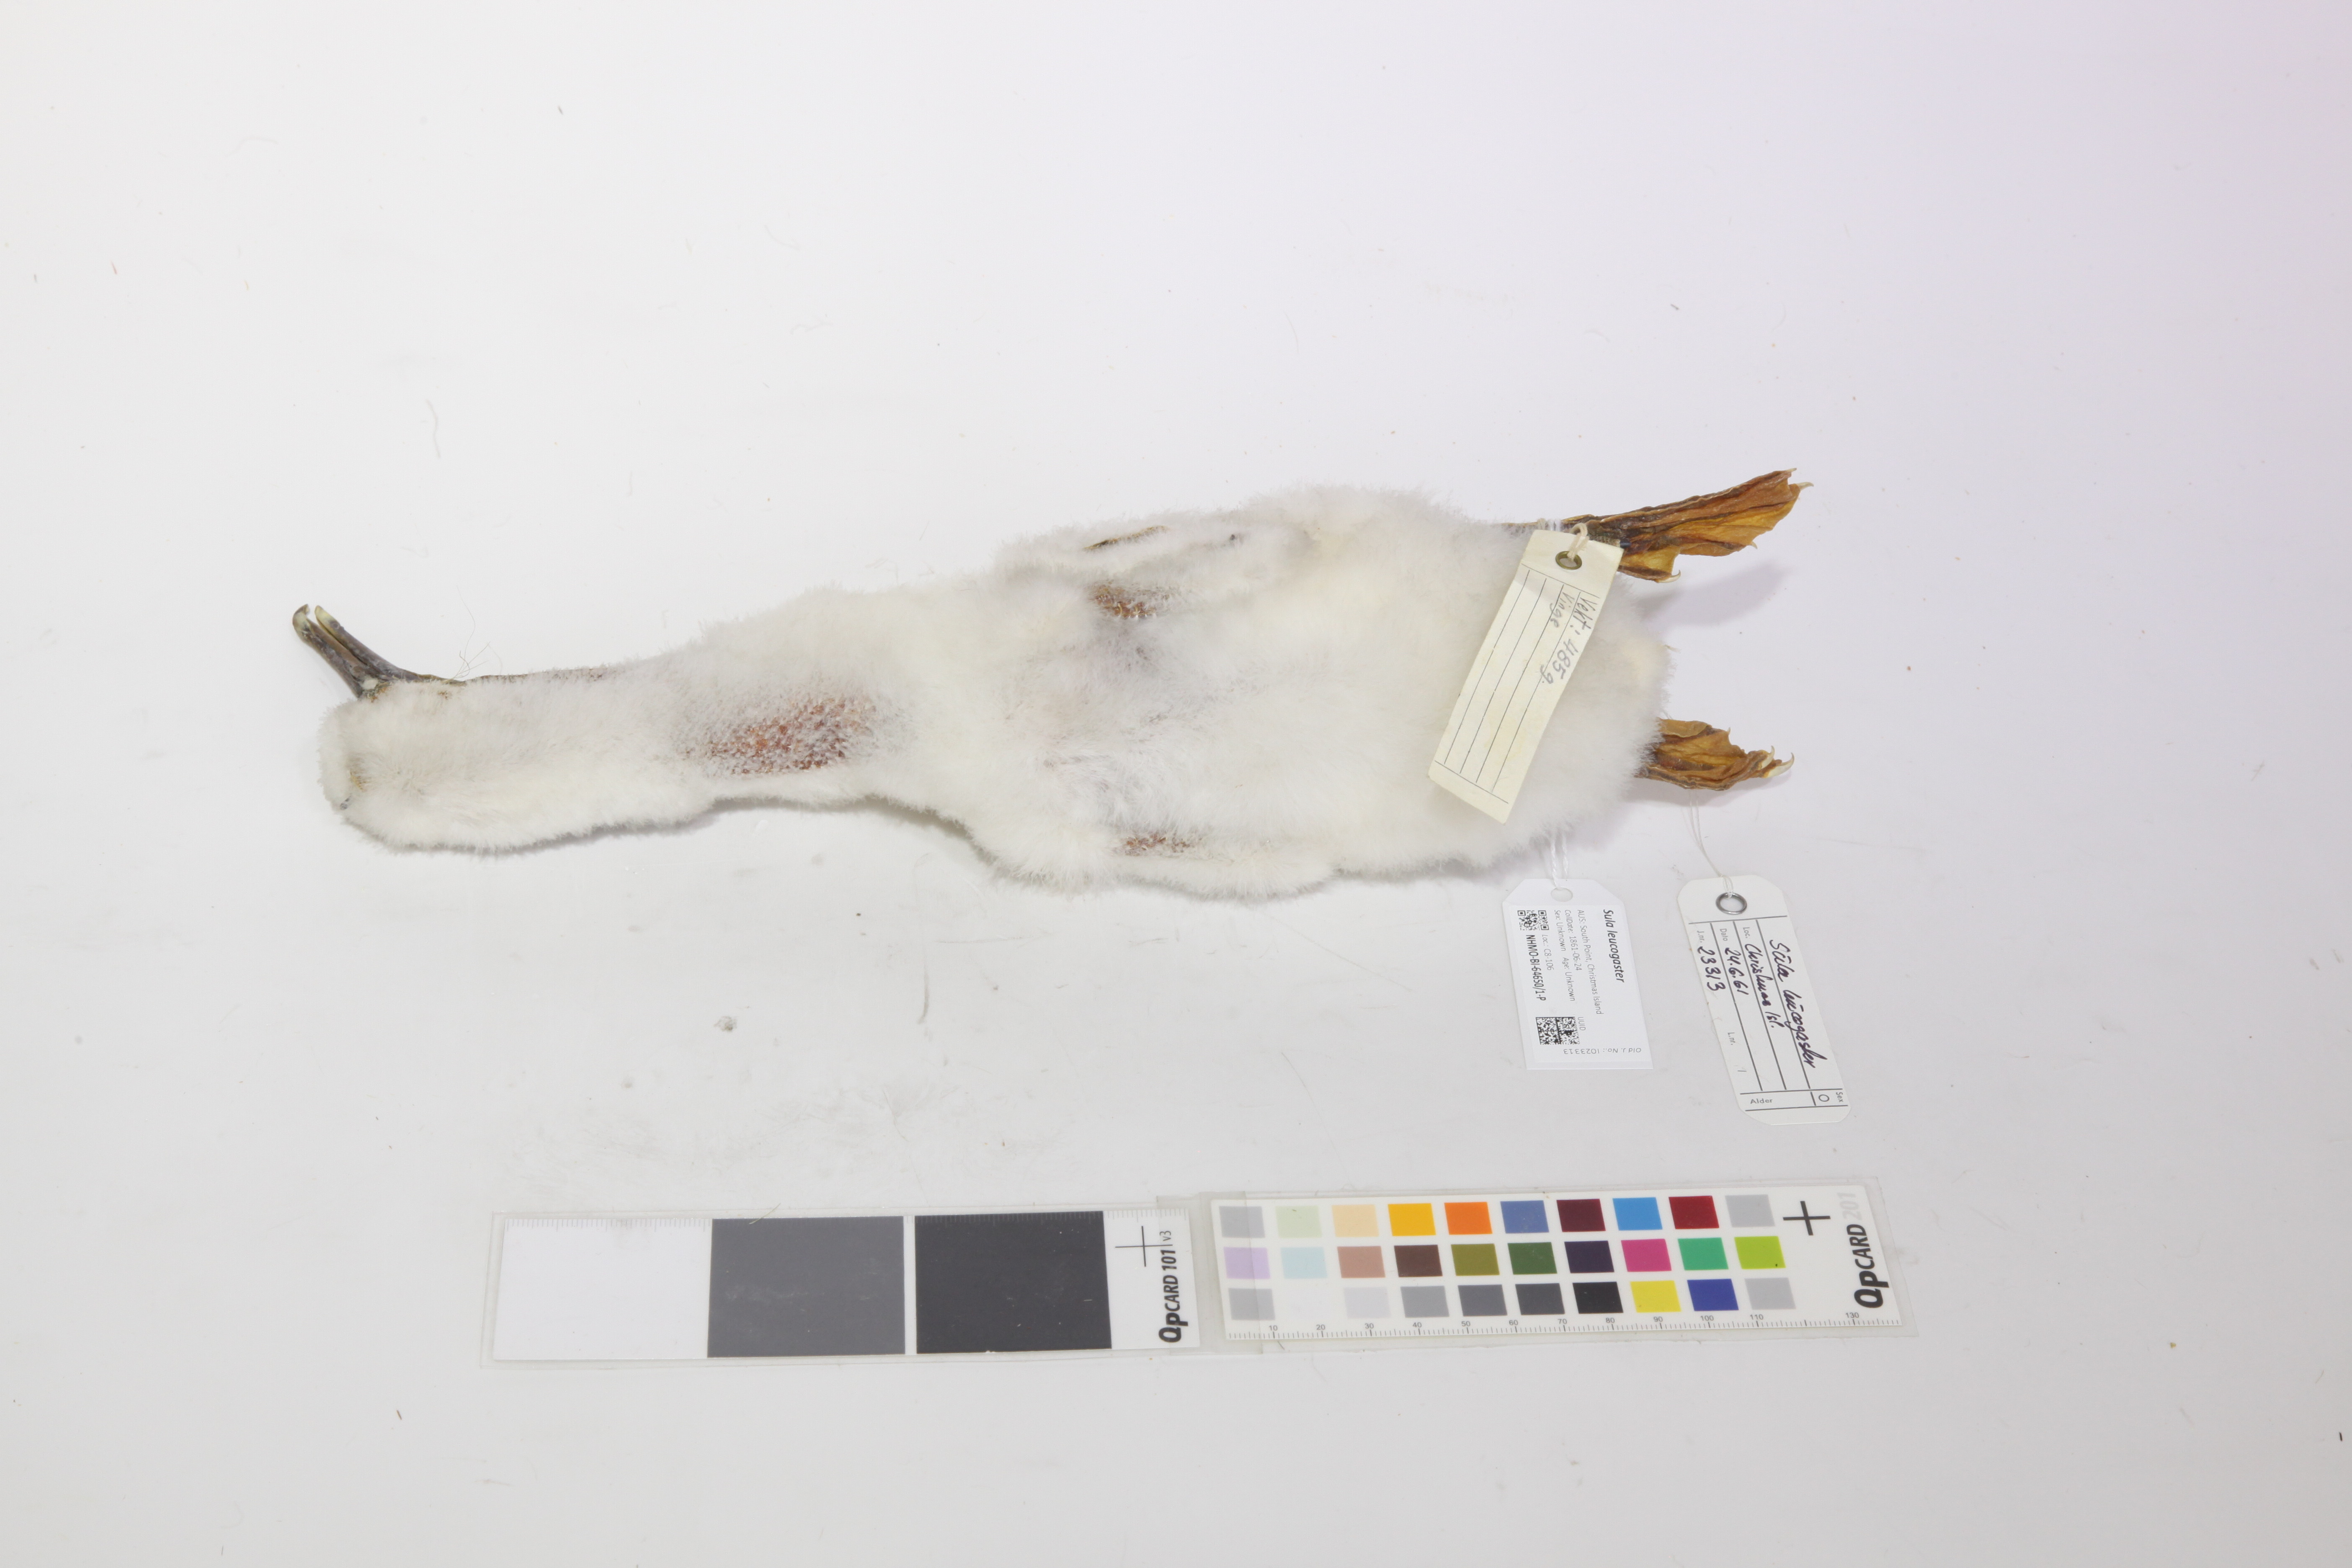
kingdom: Animalia
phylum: Chordata
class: Aves
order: Suliformes
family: Sulidae
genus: Sula
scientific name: Sula leucogaster
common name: Brown booby
